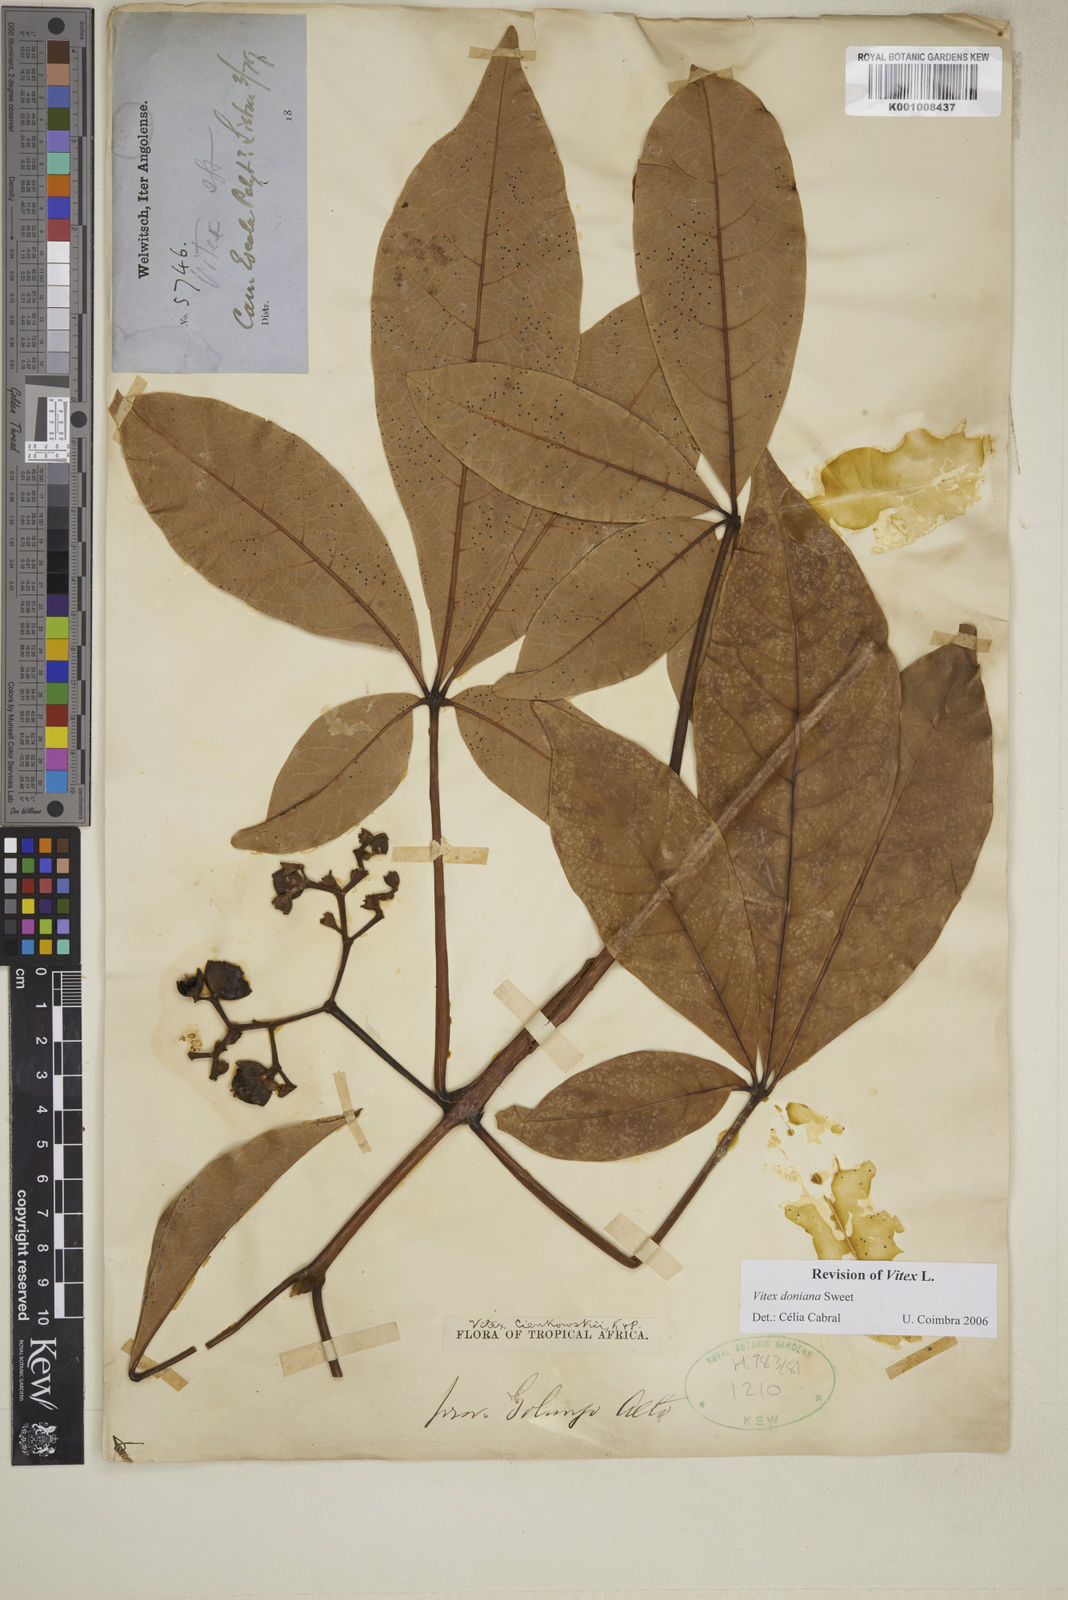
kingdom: Plantae
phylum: Tracheophyta
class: Magnoliopsida
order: Lamiales
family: Lamiaceae
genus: Vitex
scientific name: Vitex doniana
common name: Black plum
